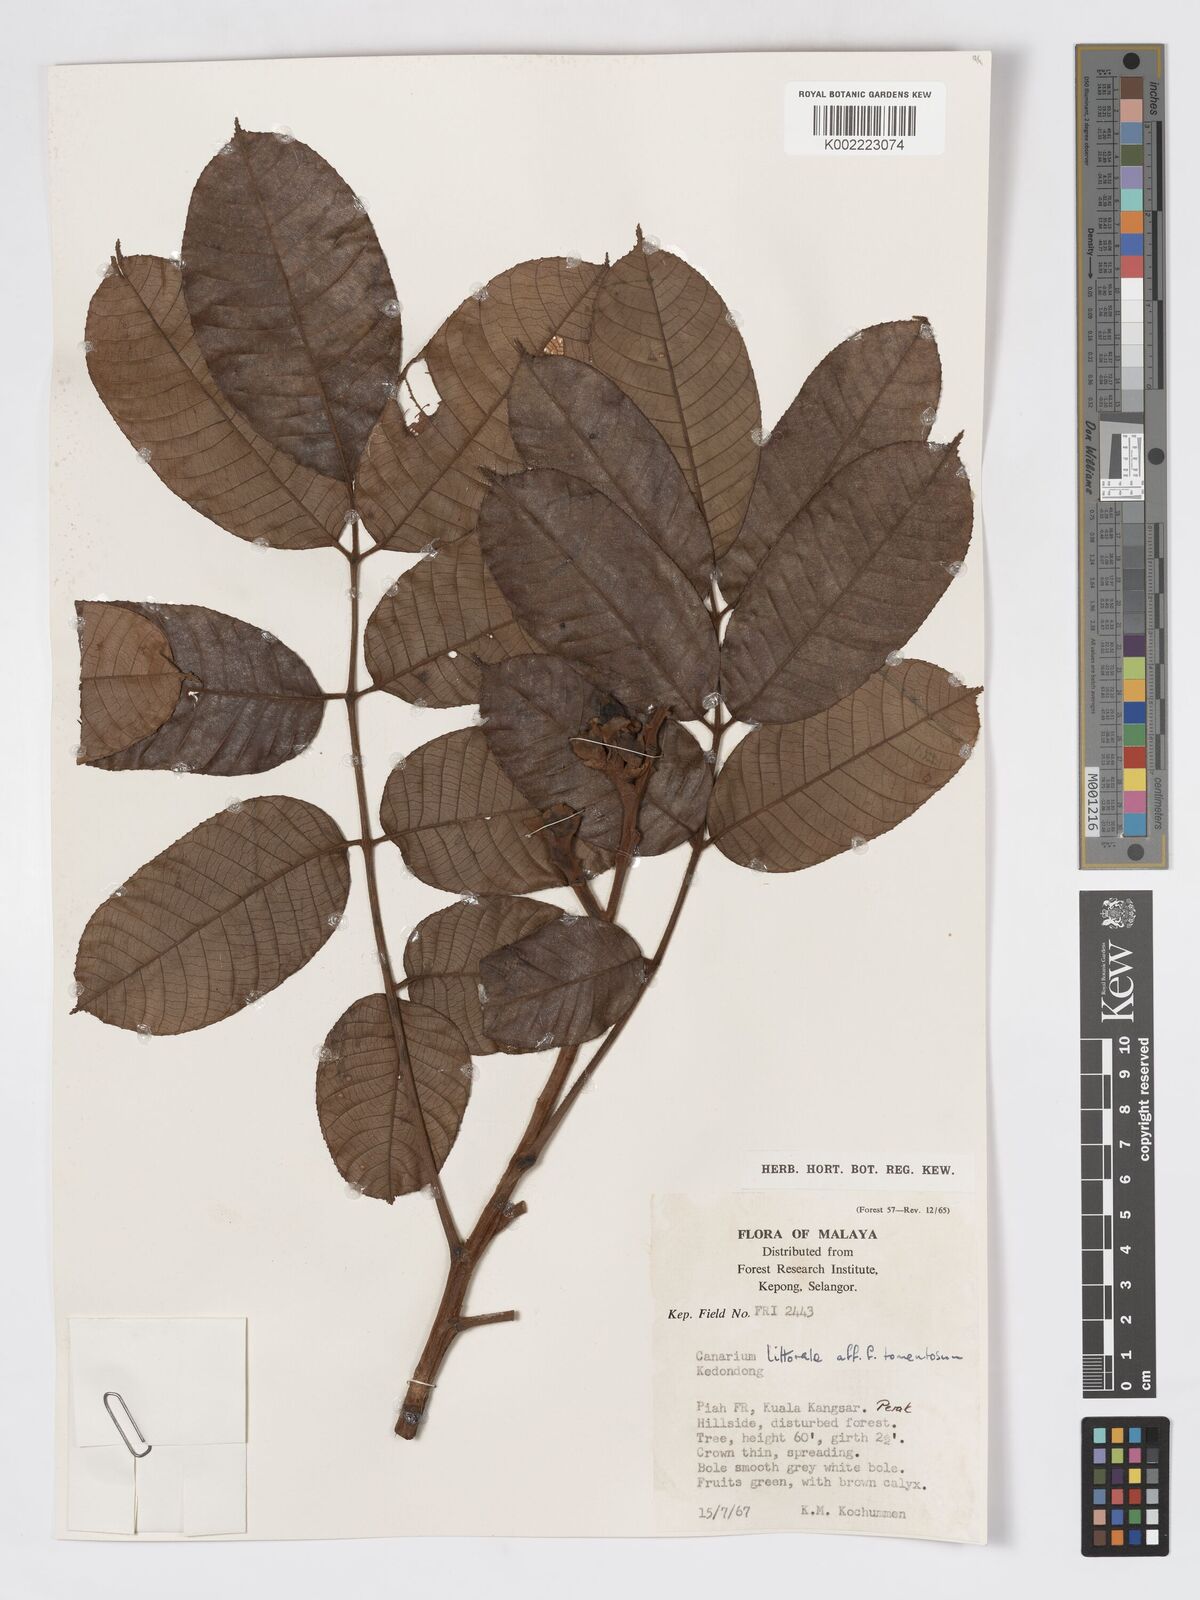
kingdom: Plantae
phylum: Tracheophyta
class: Magnoliopsida
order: Sapindales
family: Burseraceae
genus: Canarium
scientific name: Canarium littorale
